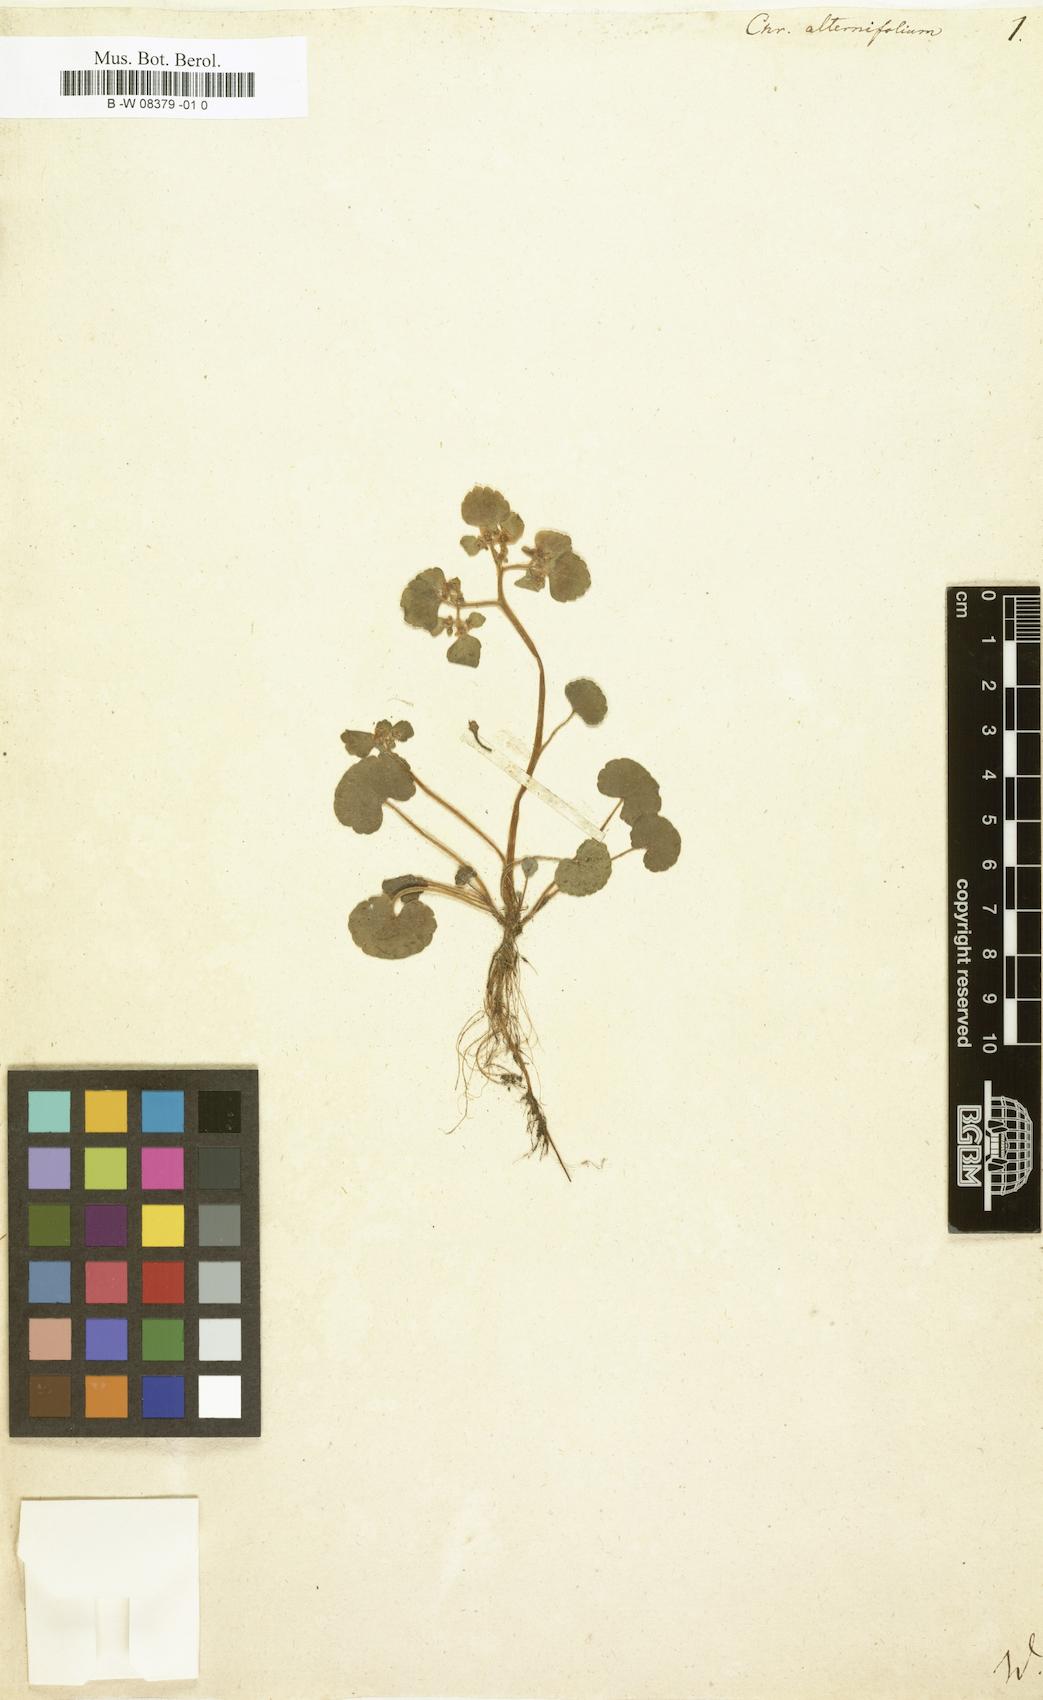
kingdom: Plantae
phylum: Tracheophyta
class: Magnoliopsida
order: Saxifragales
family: Saxifragaceae
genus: Chrysosplenium
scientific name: Chrysosplenium alternifolium
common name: Alternate-leaved golden-saxifrage
